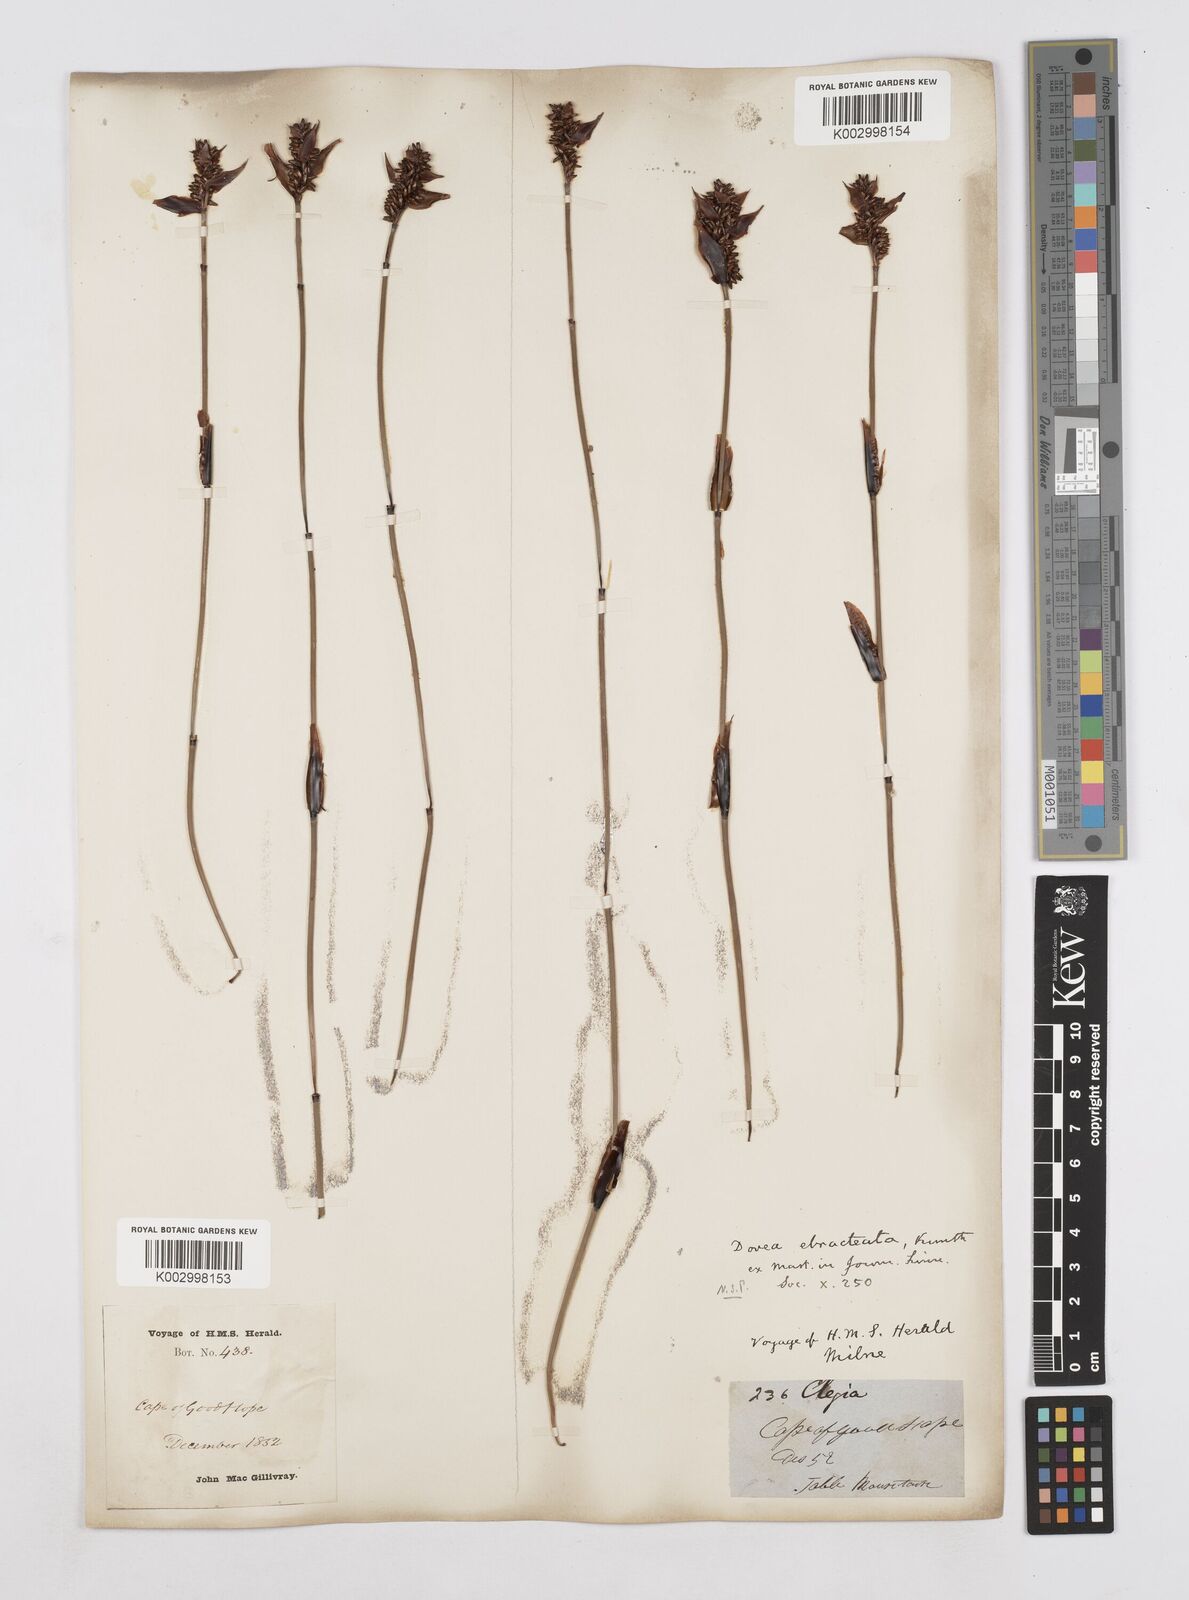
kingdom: Plantae
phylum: Tracheophyta
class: Liliopsida
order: Poales
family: Restionaceae
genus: Elegia
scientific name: Elegia hookeriana
